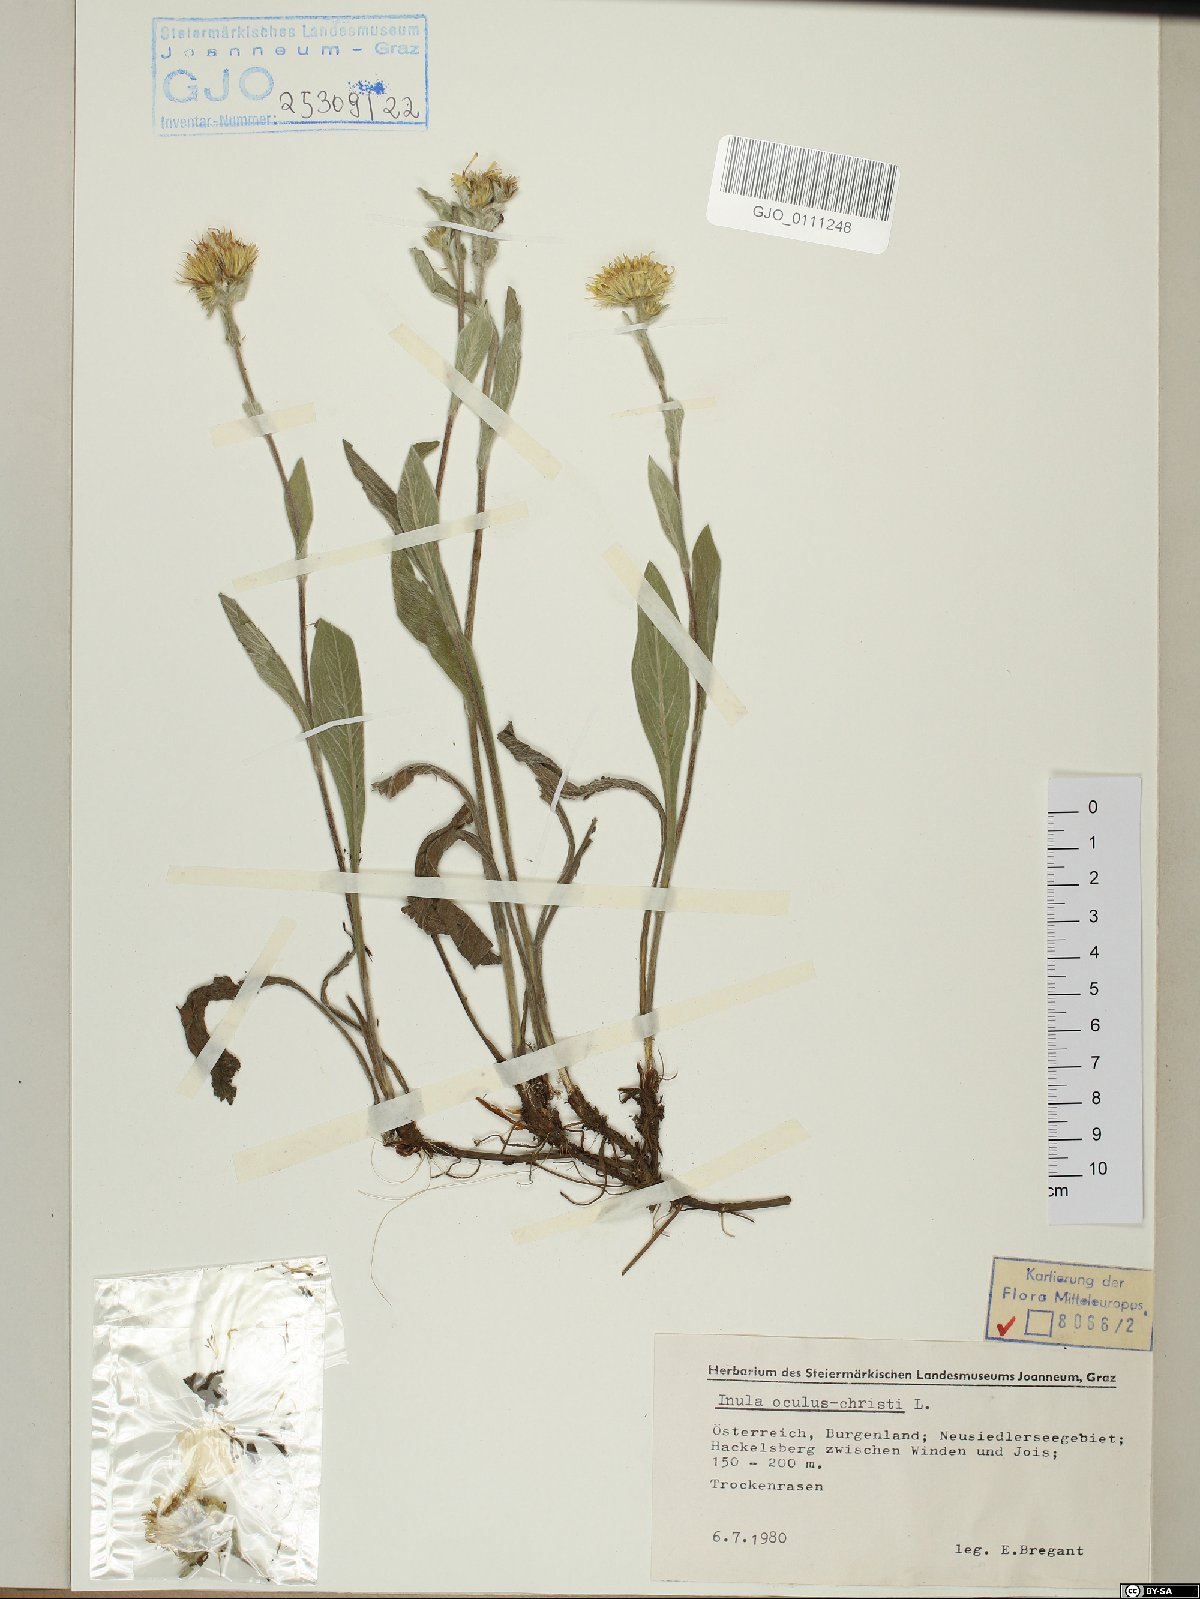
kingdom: Plantae
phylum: Tracheophyta
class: Magnoliopsida
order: Asterales
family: Asteraceae
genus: Pentanema
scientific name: Pentanema oculus-christi
